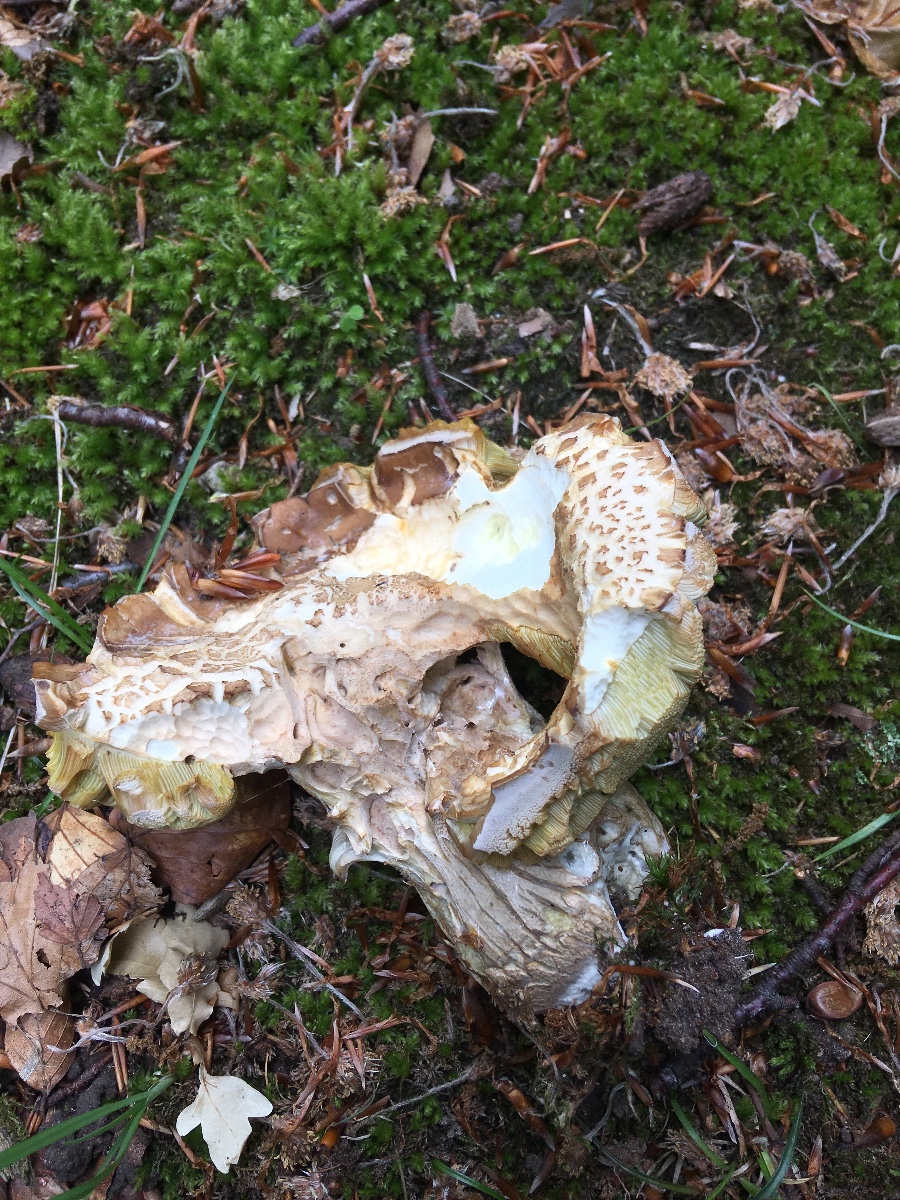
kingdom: Fungi
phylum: Basidiomycota
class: Agaricomycetes
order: Boletales
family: Boletaceae
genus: Boletus
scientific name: Boletus reticulatus
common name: sommer-rørhat
